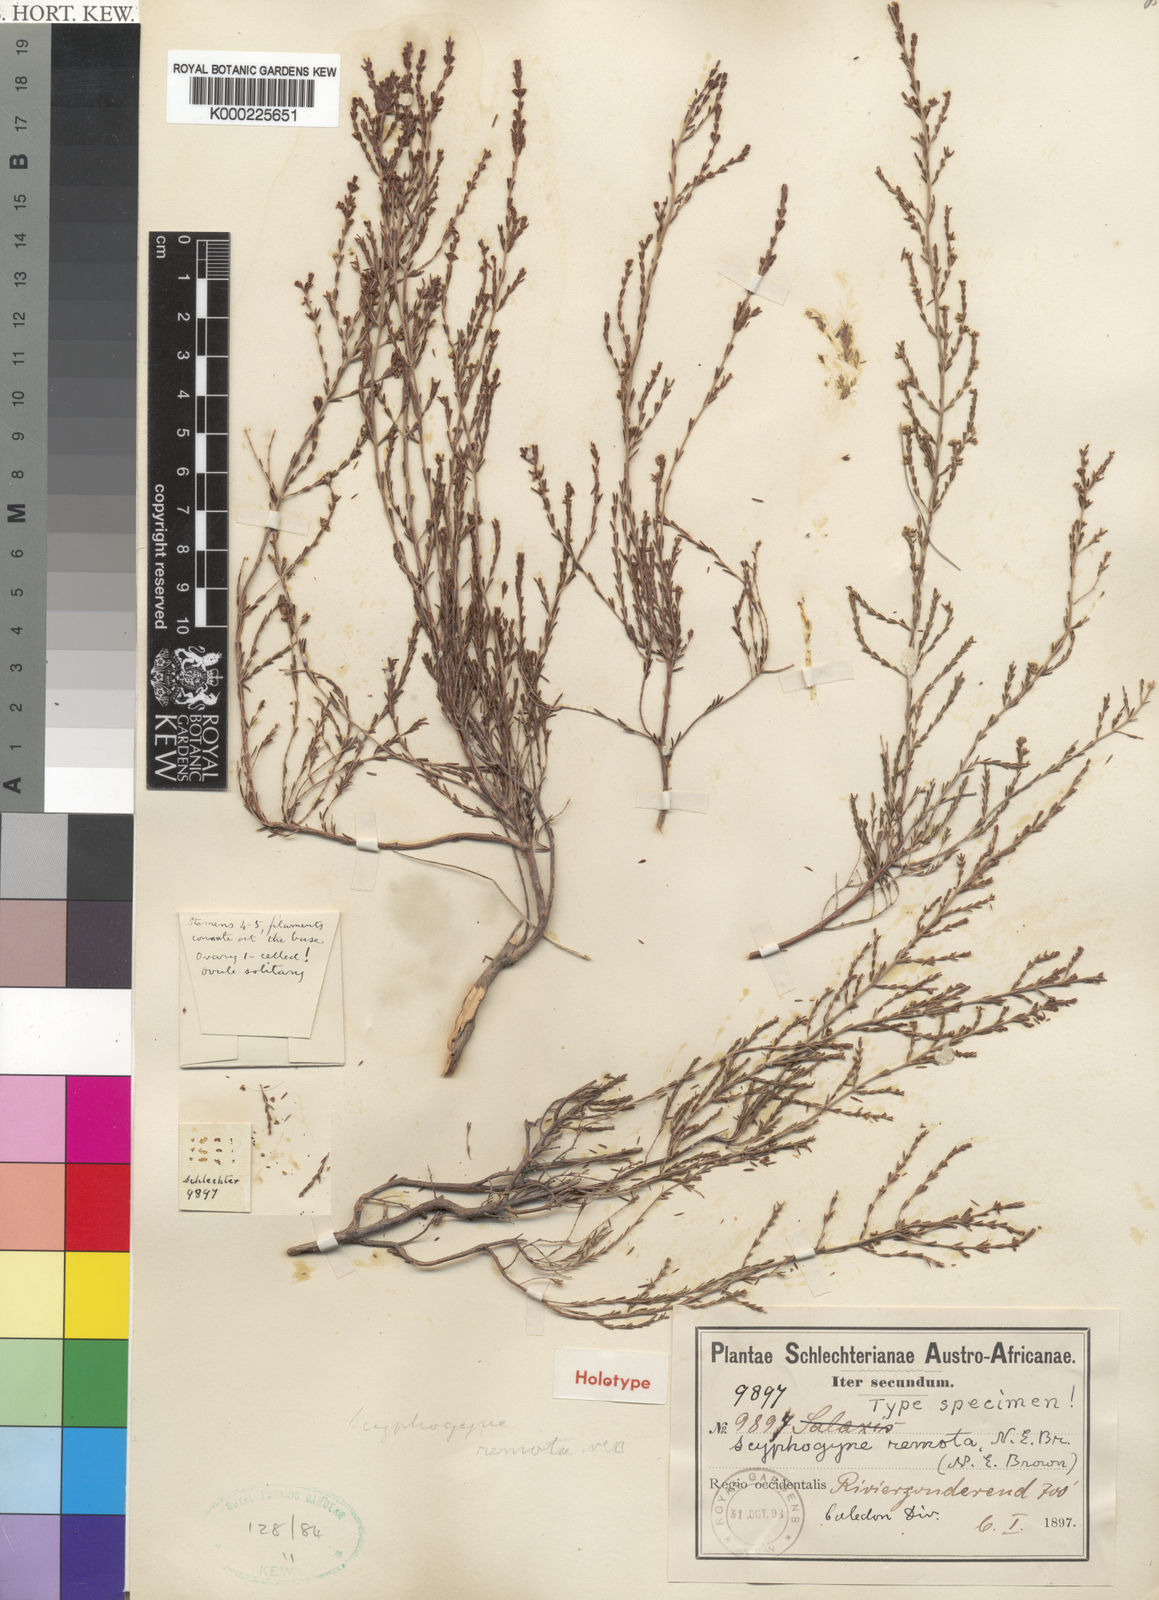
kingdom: Plantae
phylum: Tracheophyta
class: Magnoliopsida
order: Ericales
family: Ericaceae
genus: Erica
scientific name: Erica remota
